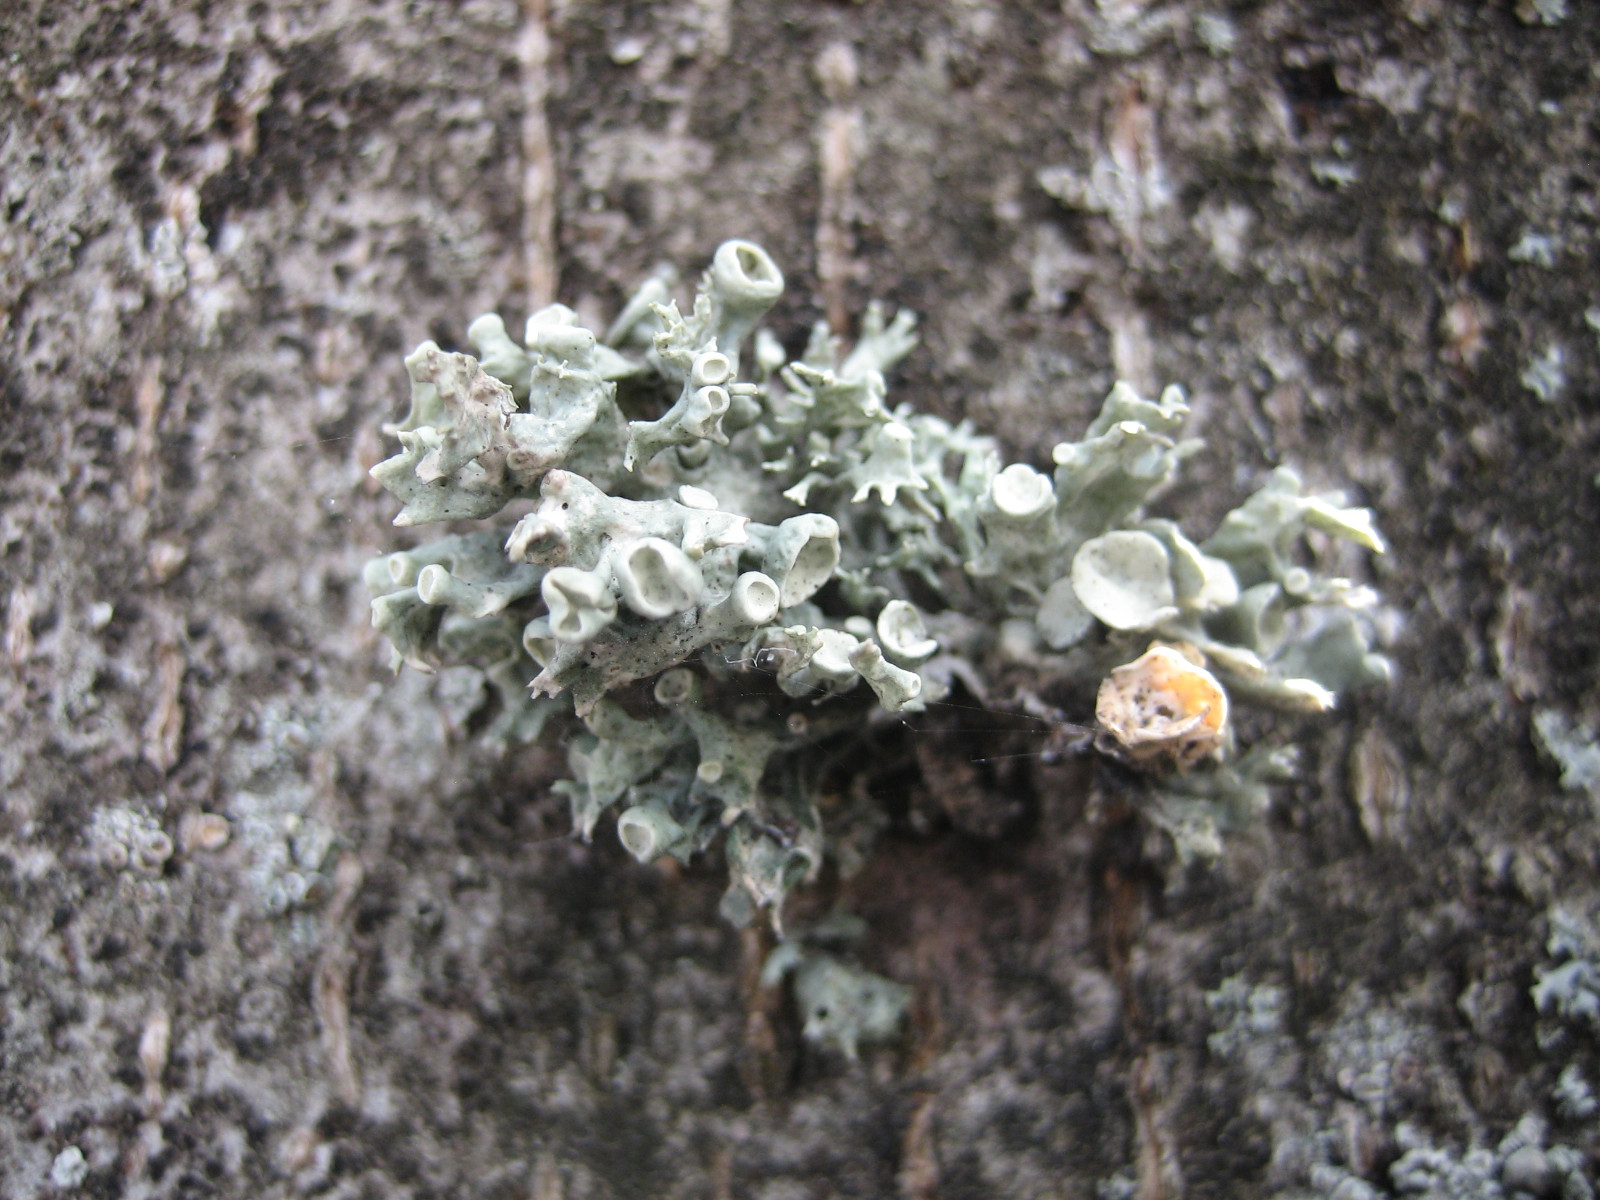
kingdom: Fungi
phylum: Ascomycota
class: Lecanoromycetes
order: Lecanorales
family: Ramalinaceae
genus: Ramalina
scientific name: Ramalina fastigiata
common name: tue-grenlav
